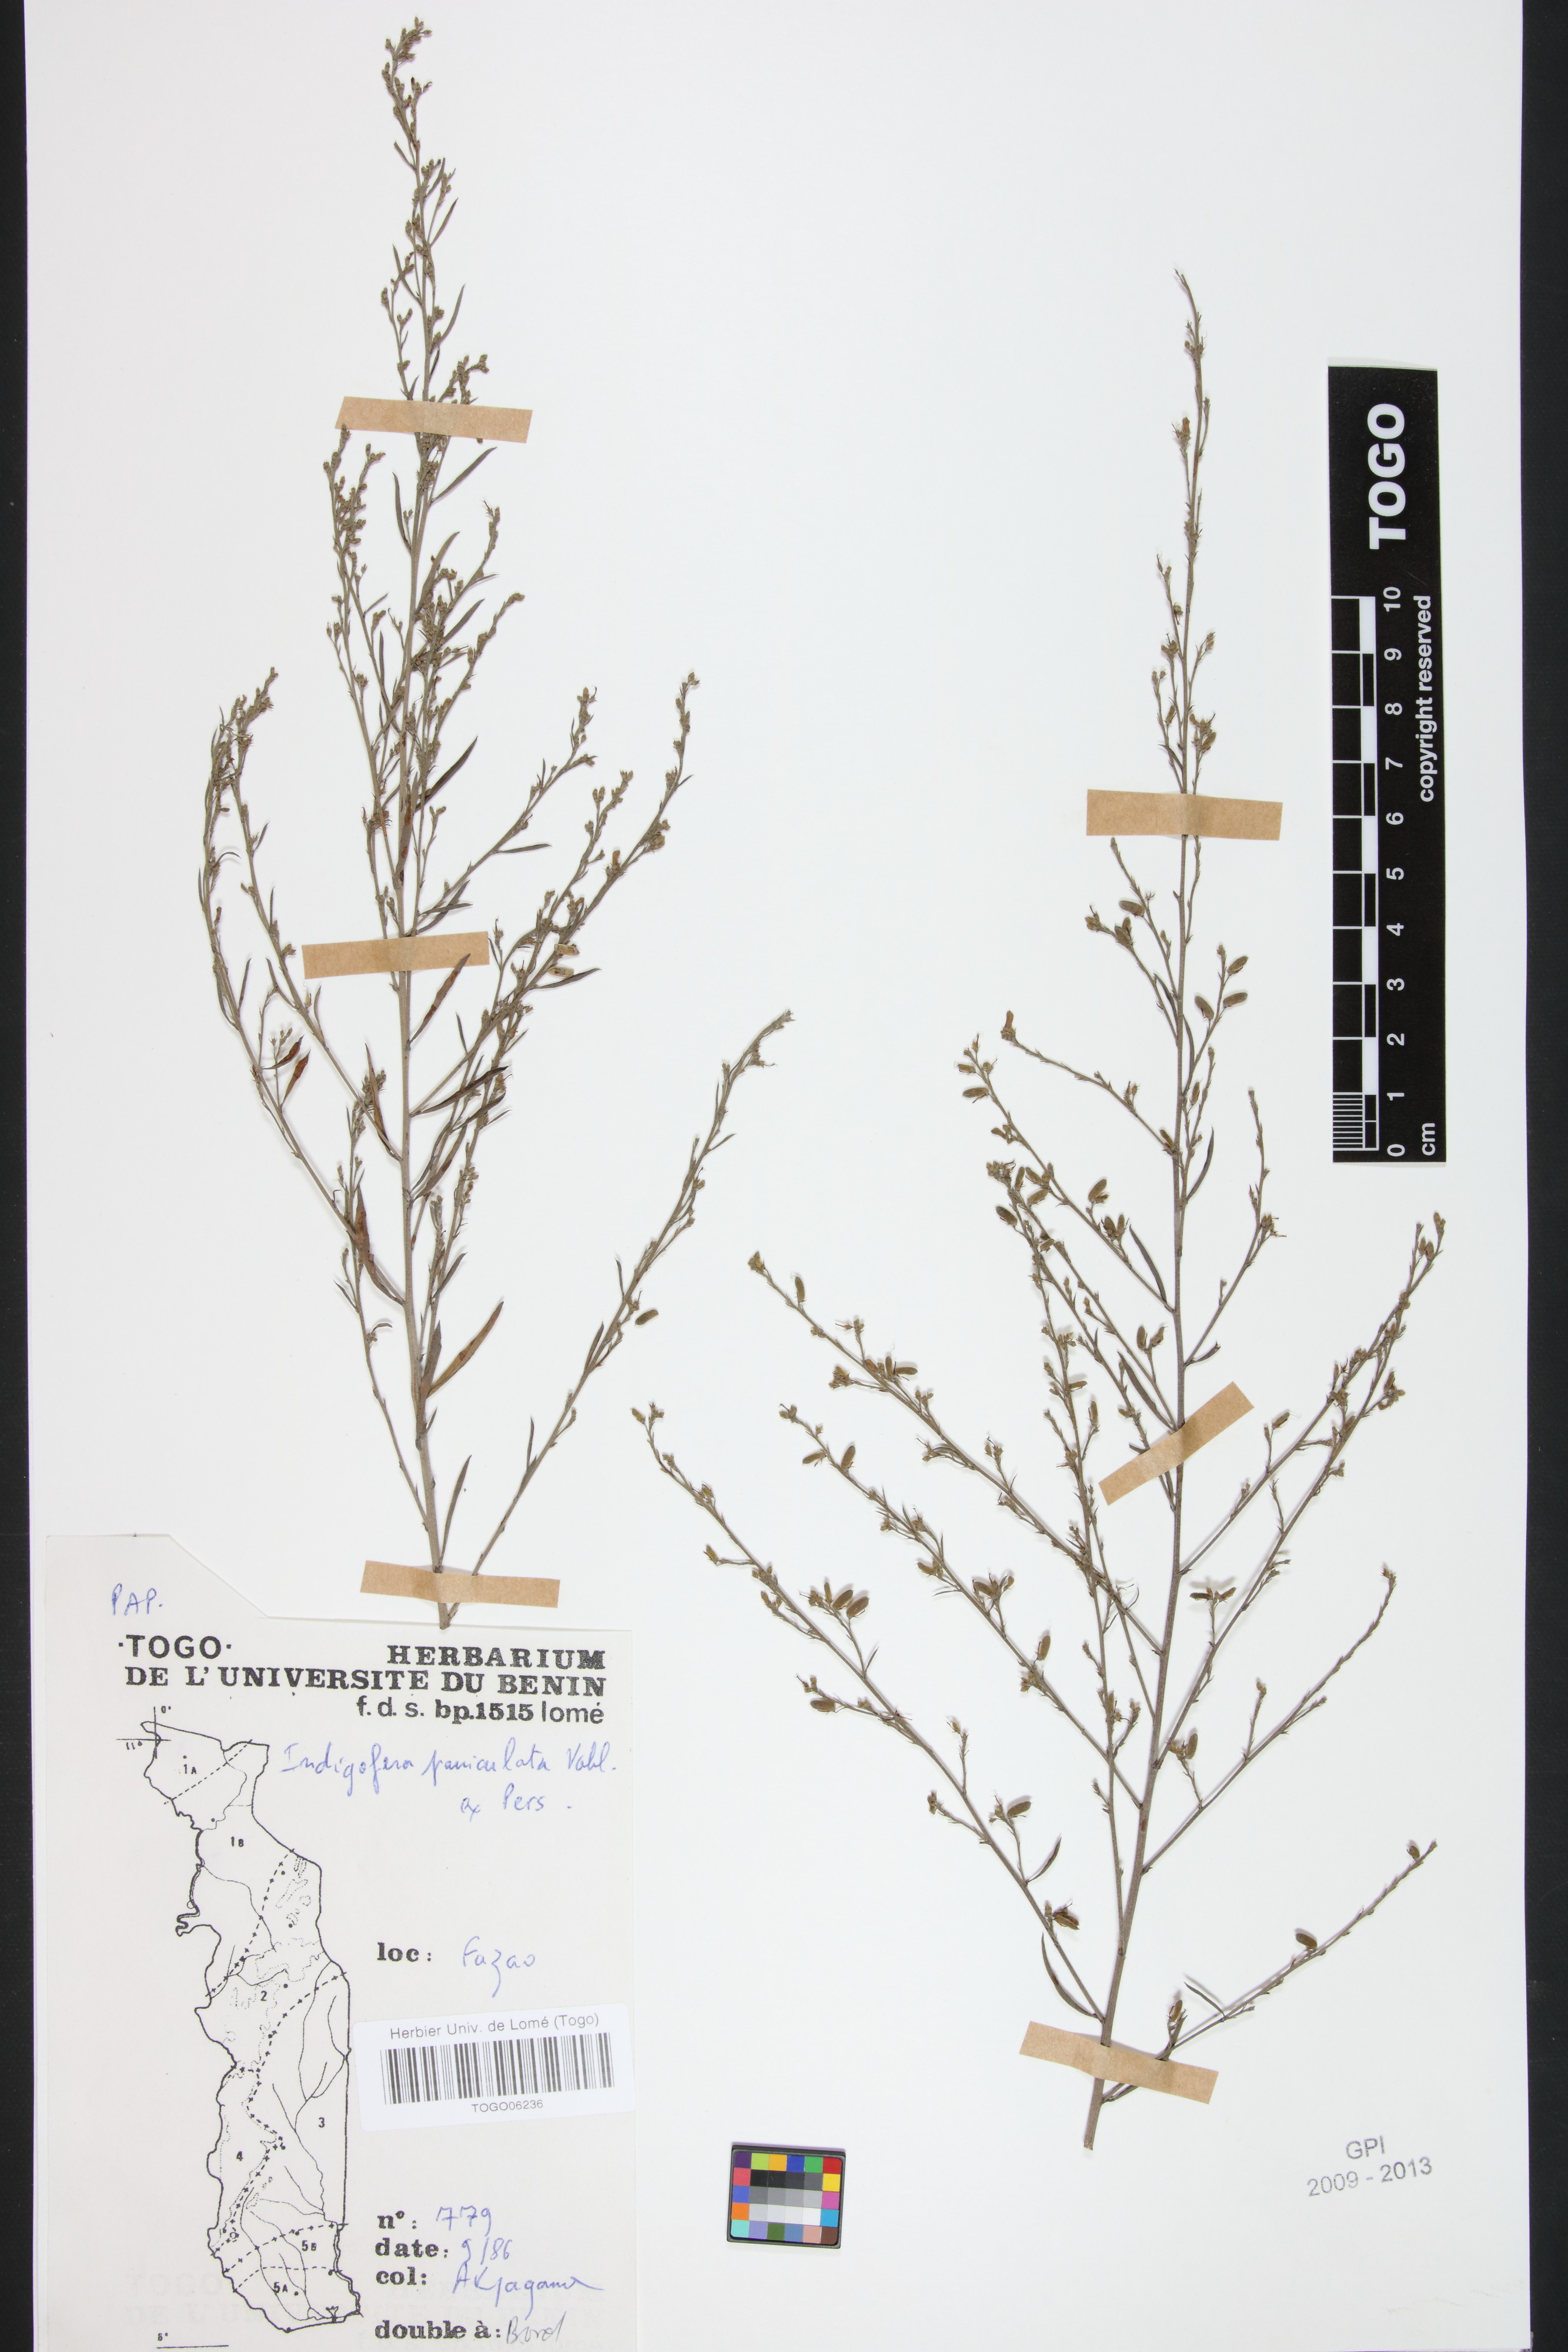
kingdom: Plantae
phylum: Tracheophyta
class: Magnoliopsida
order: Fabales
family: Fabaceae
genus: Indigofera
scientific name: Indigofera paniculata
